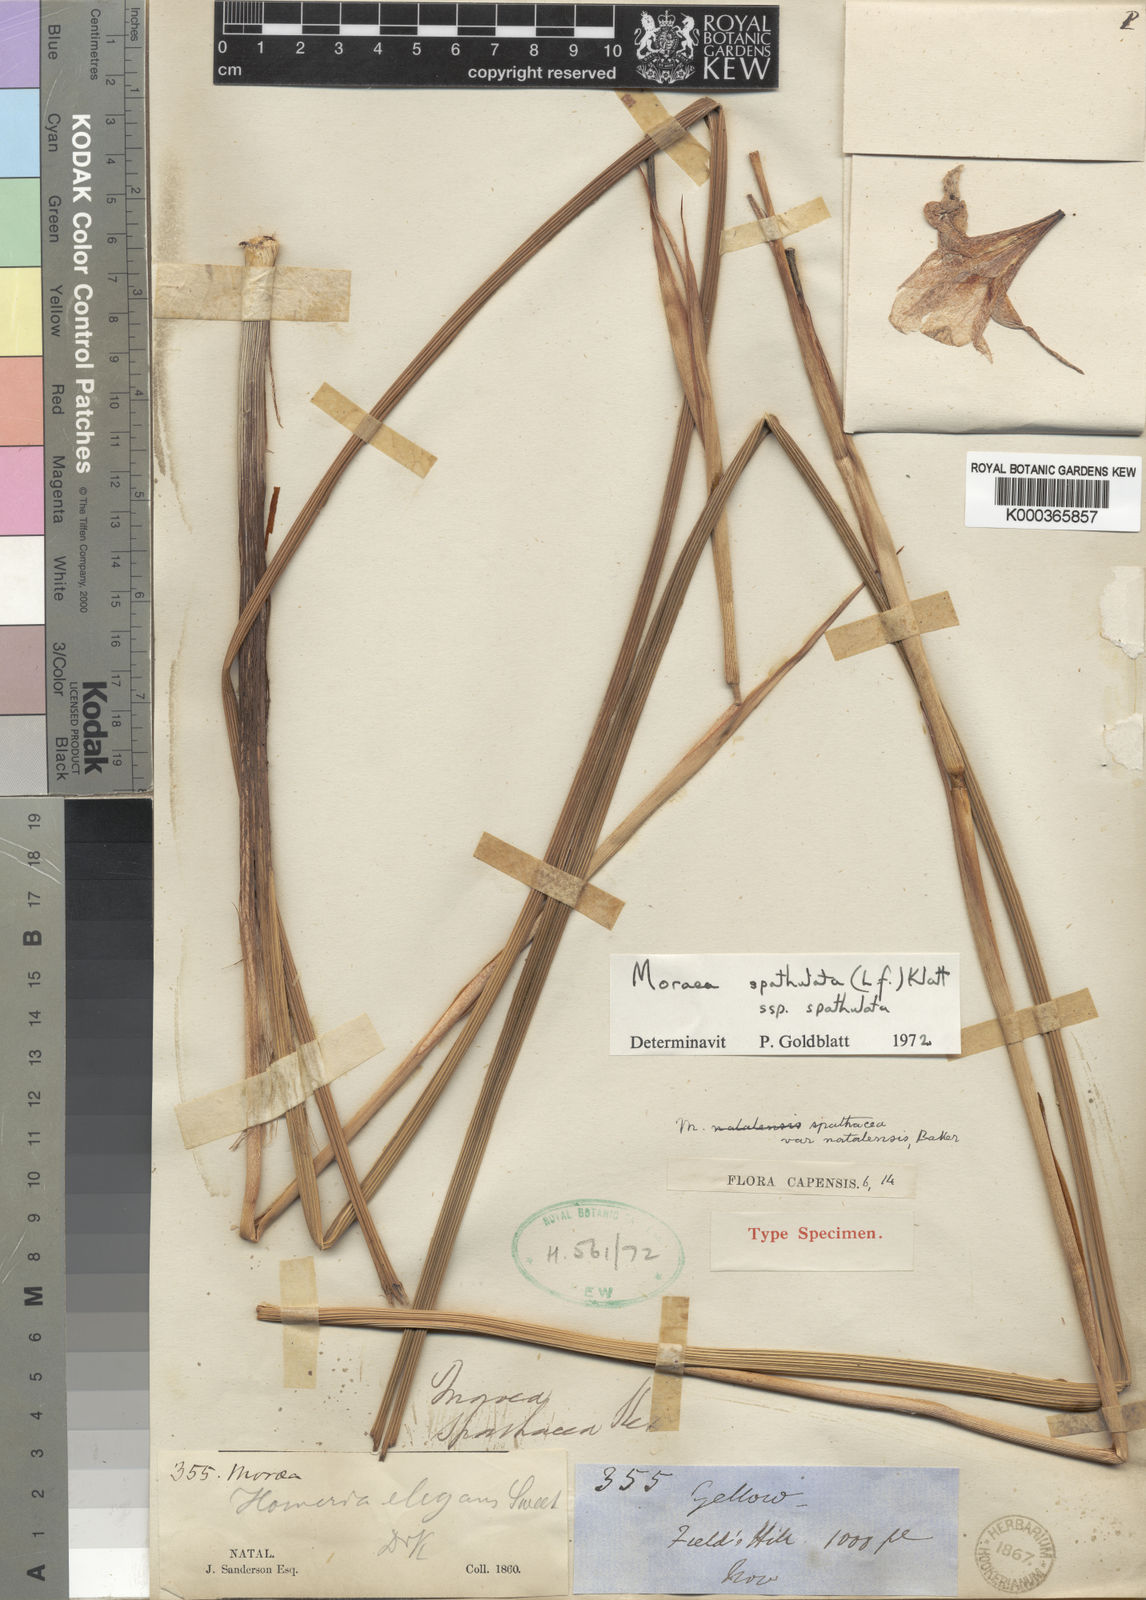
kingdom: Plantae
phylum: Tracheophyta
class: Liliopsida
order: Asparagales
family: Iridaceae
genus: Moraea
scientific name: Moraea spathulata
